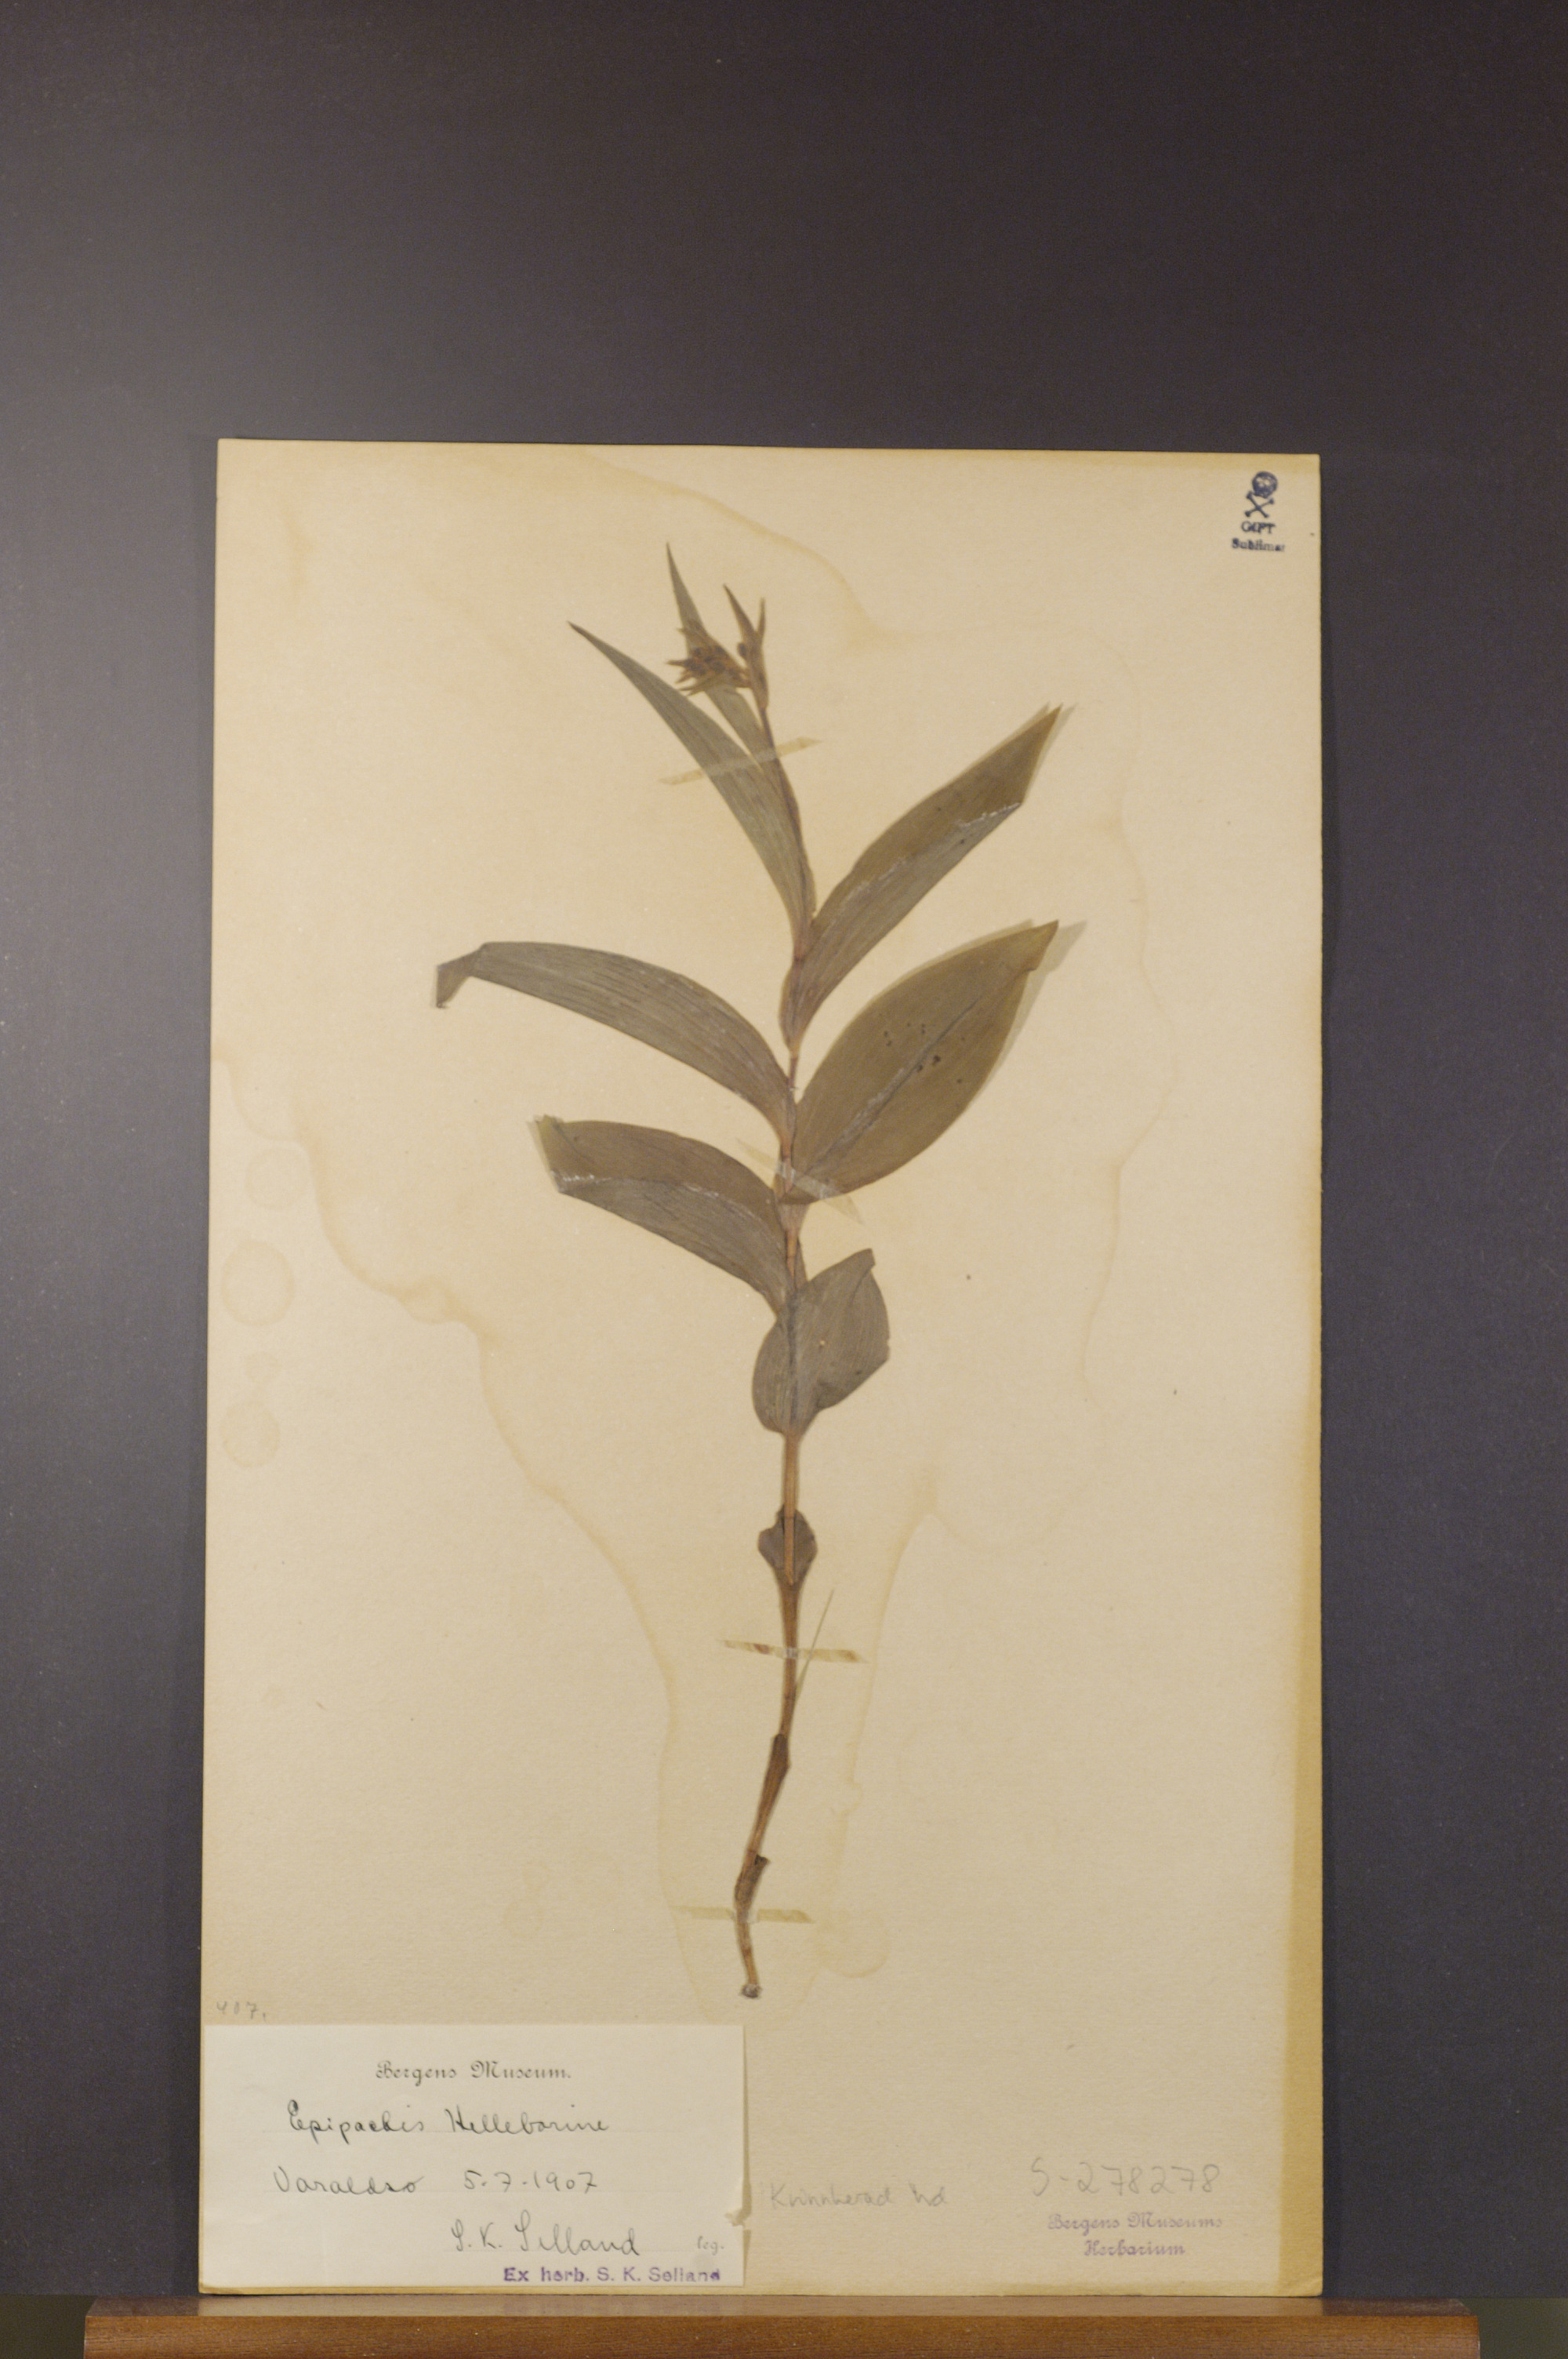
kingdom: Plantae
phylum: Tracheophyta
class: Liliopsida
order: Asparagales
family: Orchidaceae
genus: Epipactis
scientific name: Epipactis helleborine
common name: Broad-leaved helleborine
